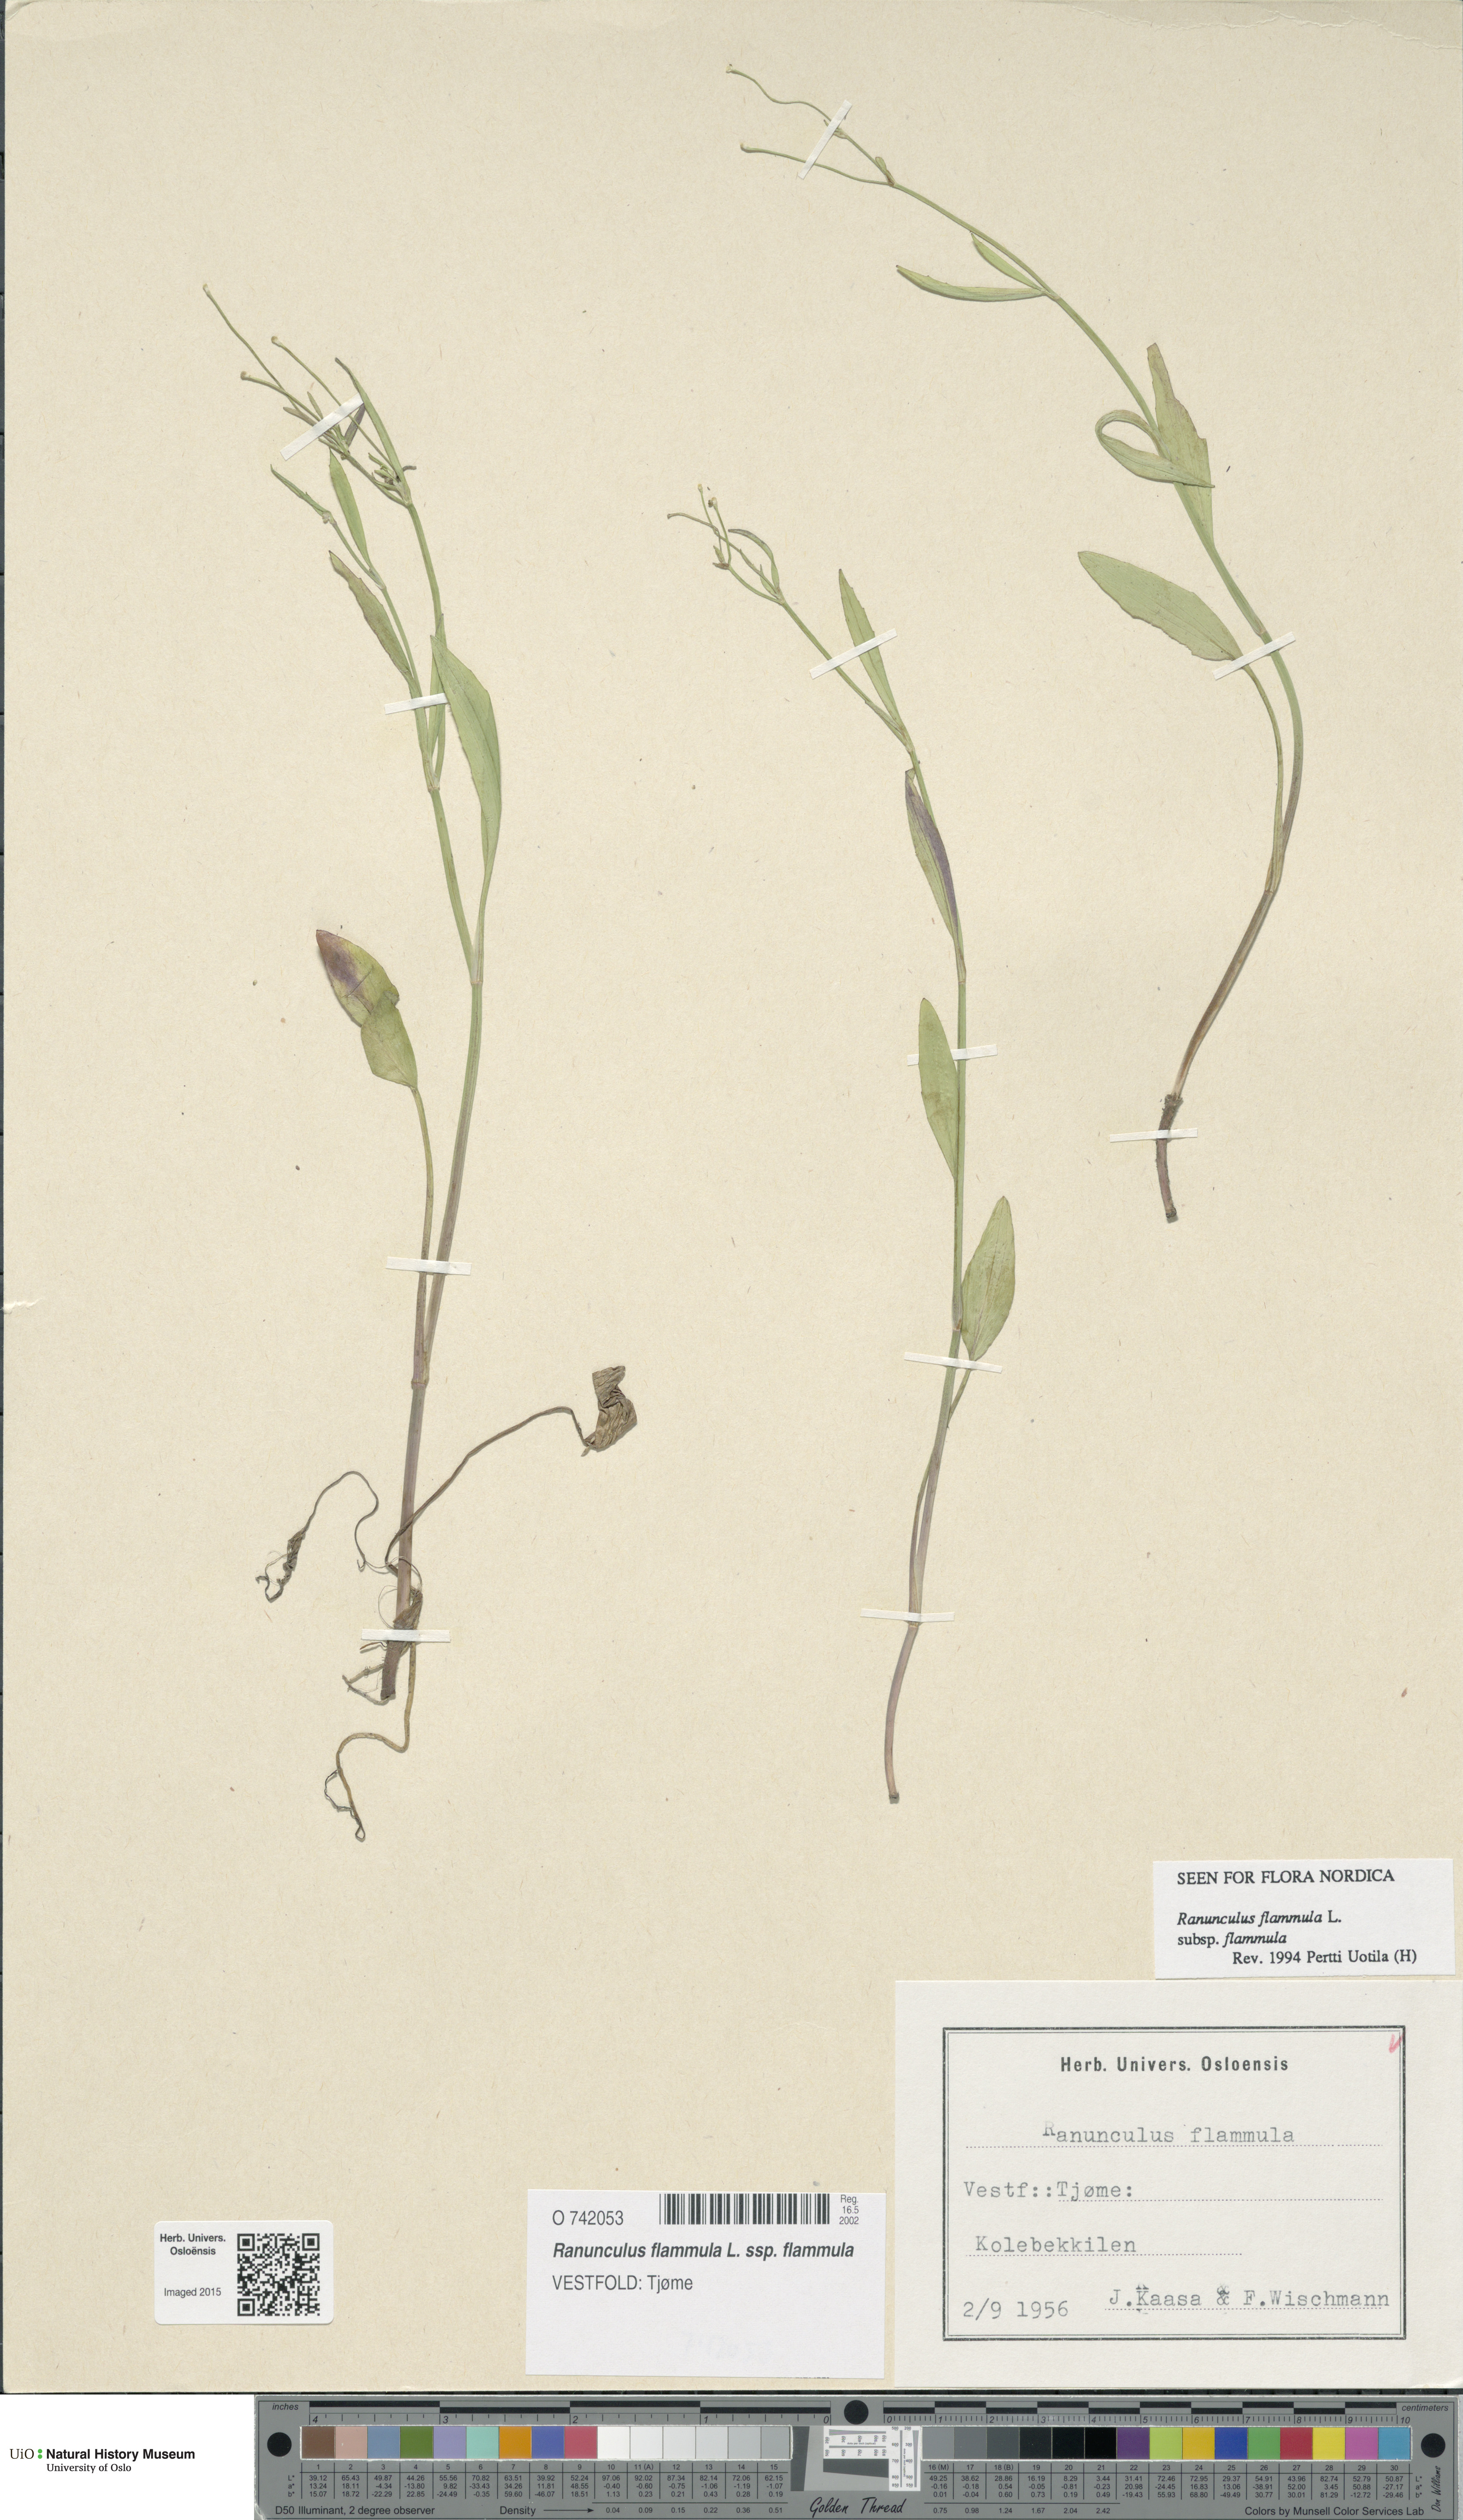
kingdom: Plantae
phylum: Tracheophyta
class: Magnoliopsida
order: Ranunculales
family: Ranunculaceae
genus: Ranunculus
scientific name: Ranunculus flammula
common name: Lesser spearwort
